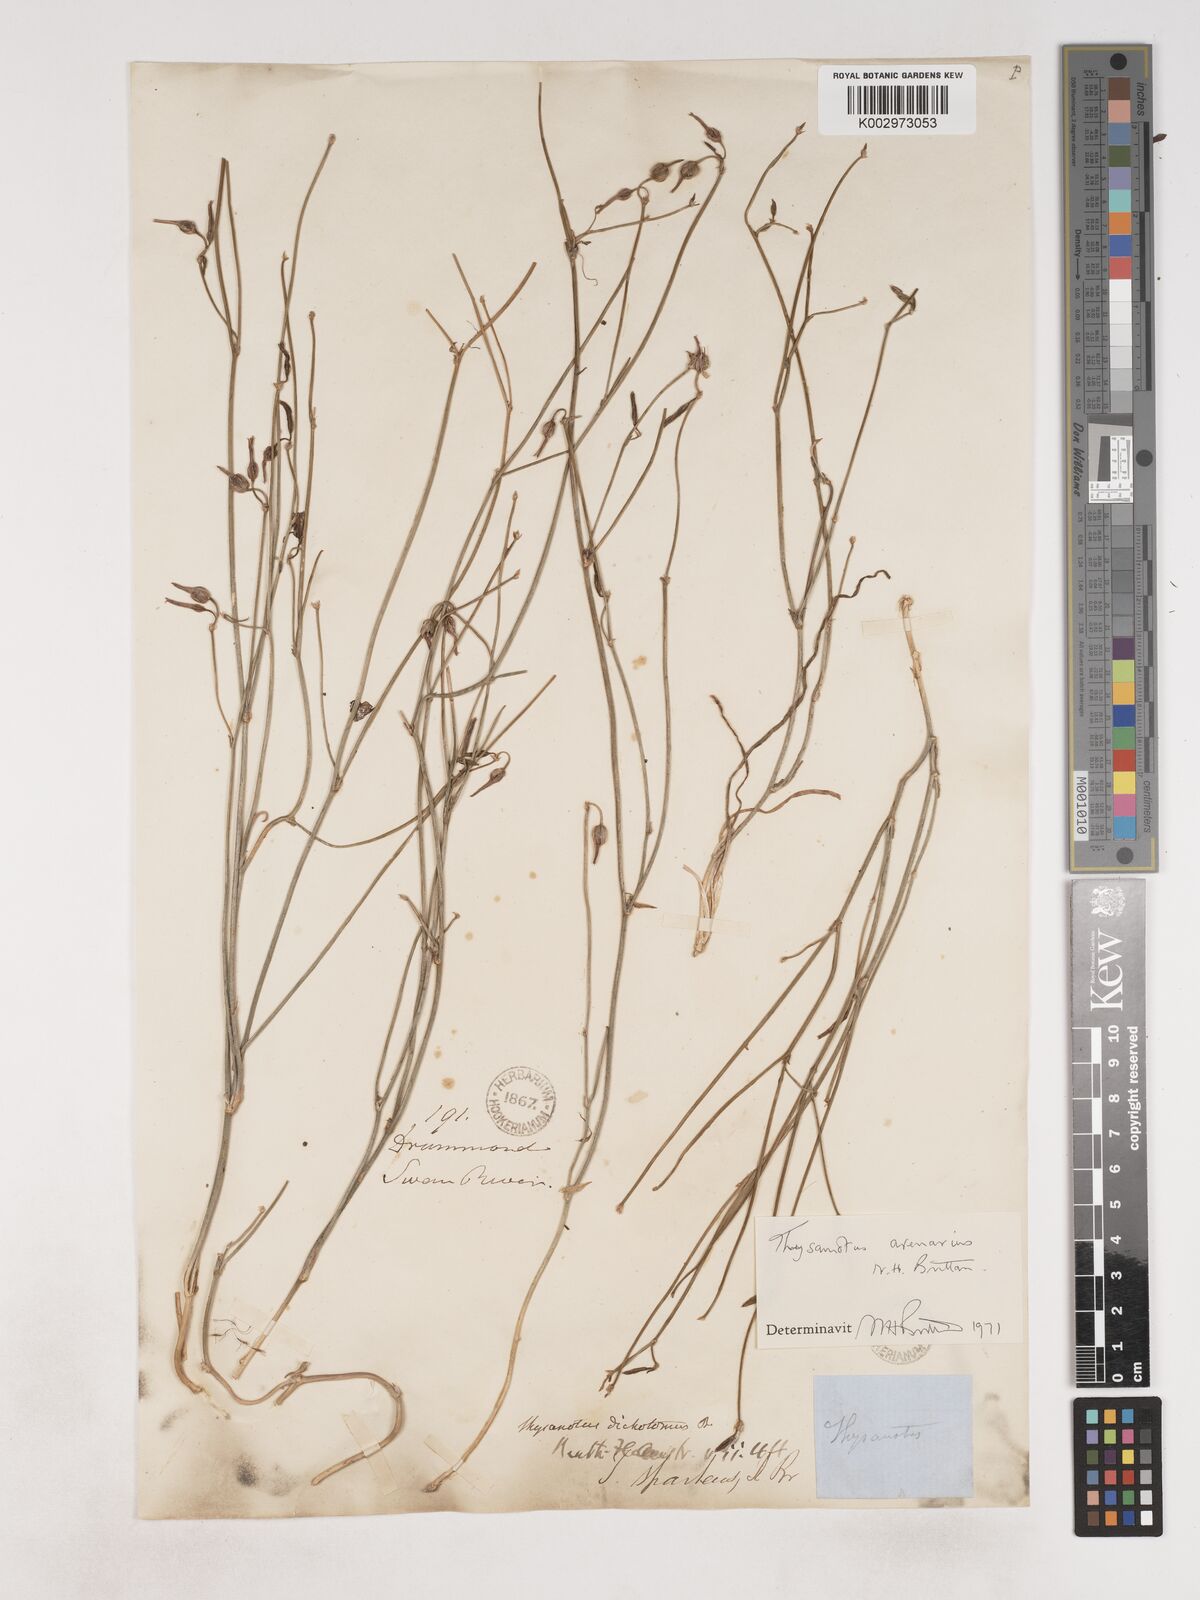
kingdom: Plantae
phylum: Tracheophyta
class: Liliopsida
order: Asparagales
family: Asparagaceae
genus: Thysanotus
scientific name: Thysanotus arenarius
